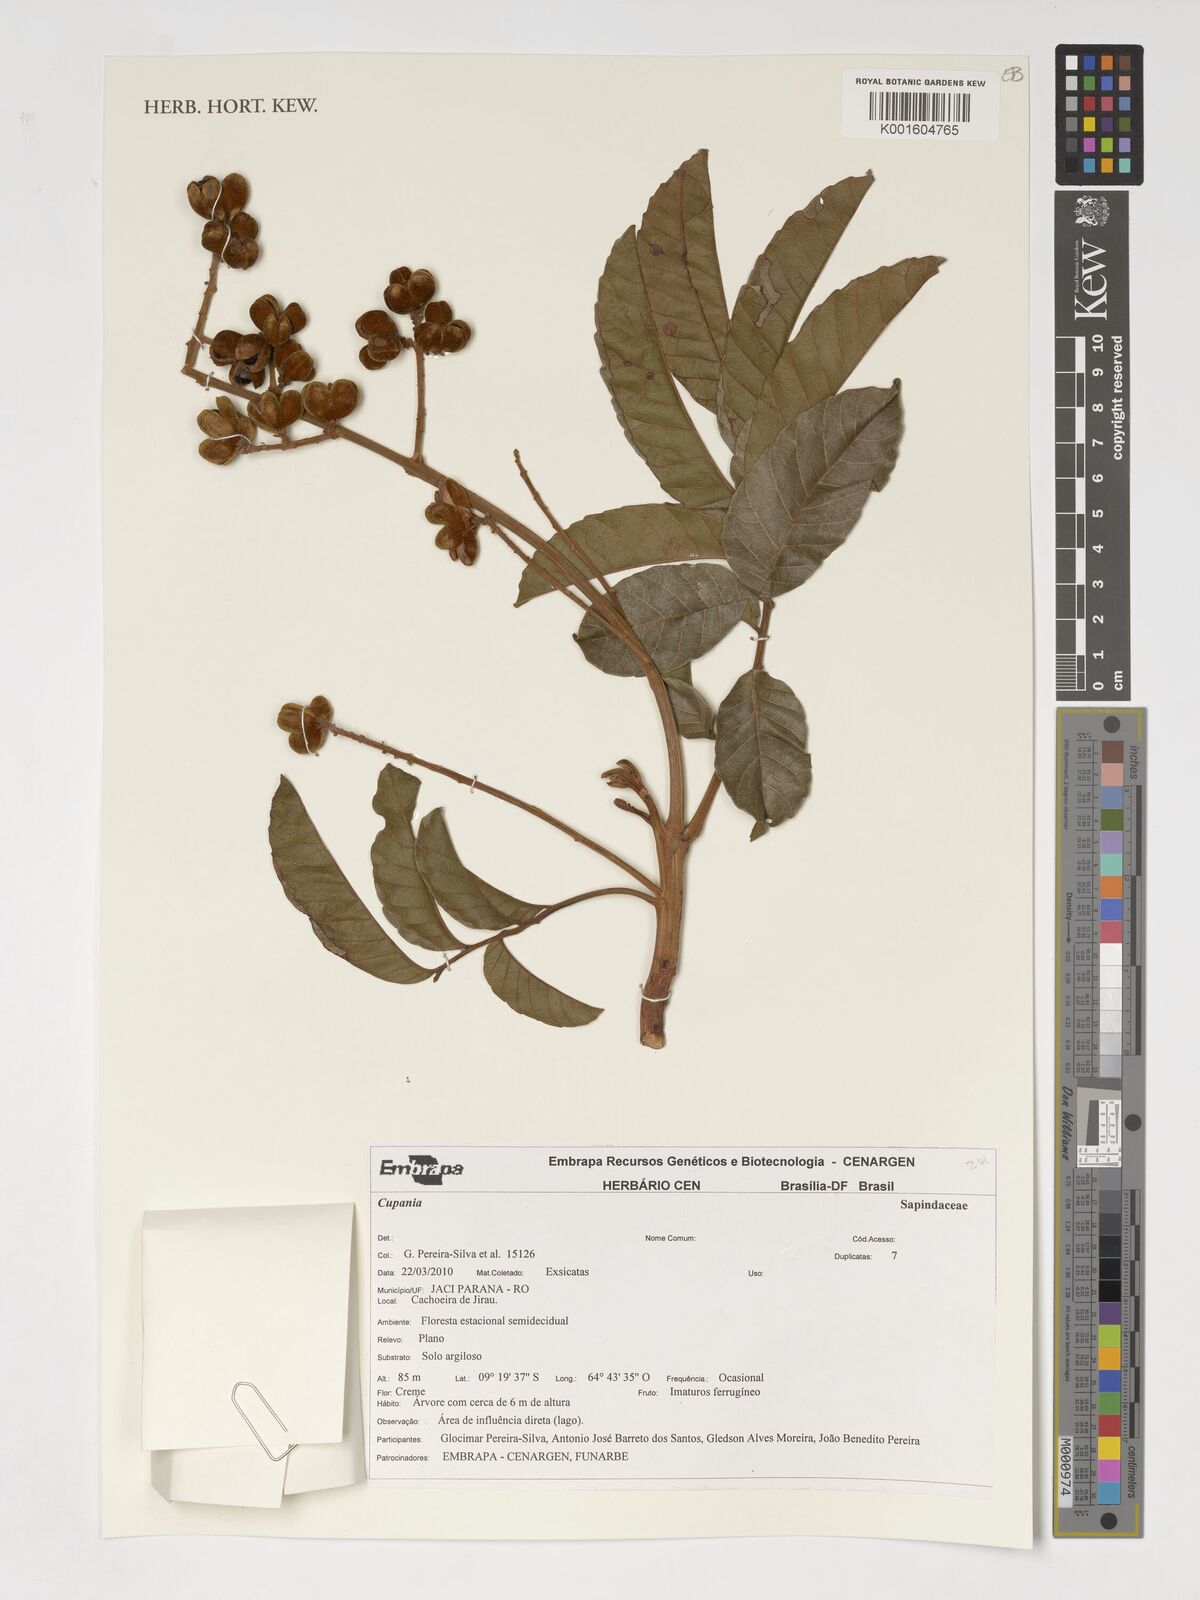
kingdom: Plantae
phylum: Tracheophyta
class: Magnoliopsida
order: Sapindales
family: Sapindaceae
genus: Cupania
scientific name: Cupania
